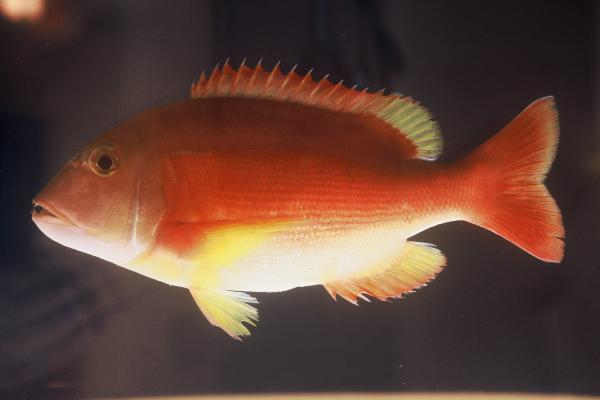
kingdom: Animalia
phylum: Chordata
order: Perciformes
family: Sparidae
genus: Porcostoma
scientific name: Porcostoma dentata
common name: Dane
